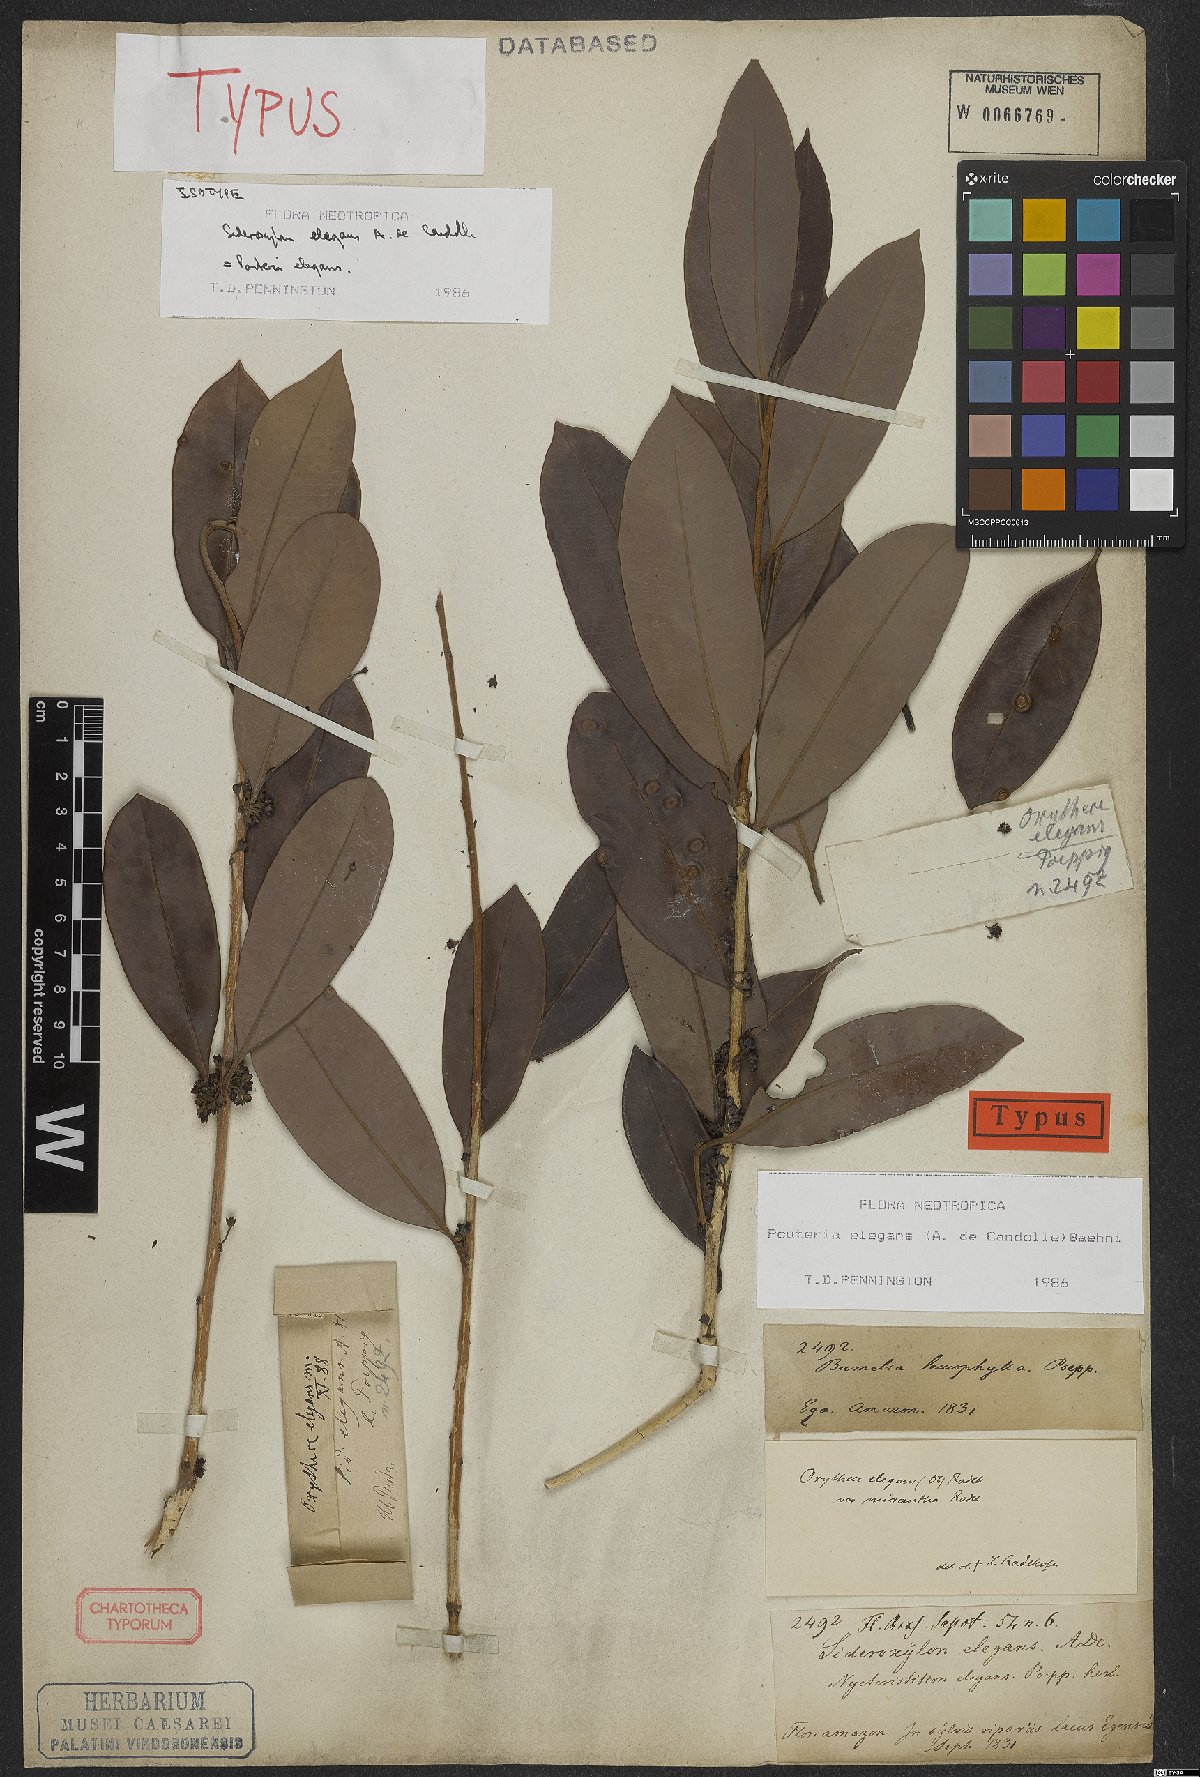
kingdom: Plantae
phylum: Tracheophyta
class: Magnoliopsida
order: Ericales
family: Sapotaceae
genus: Pouteria
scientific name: Pouteria elegans
